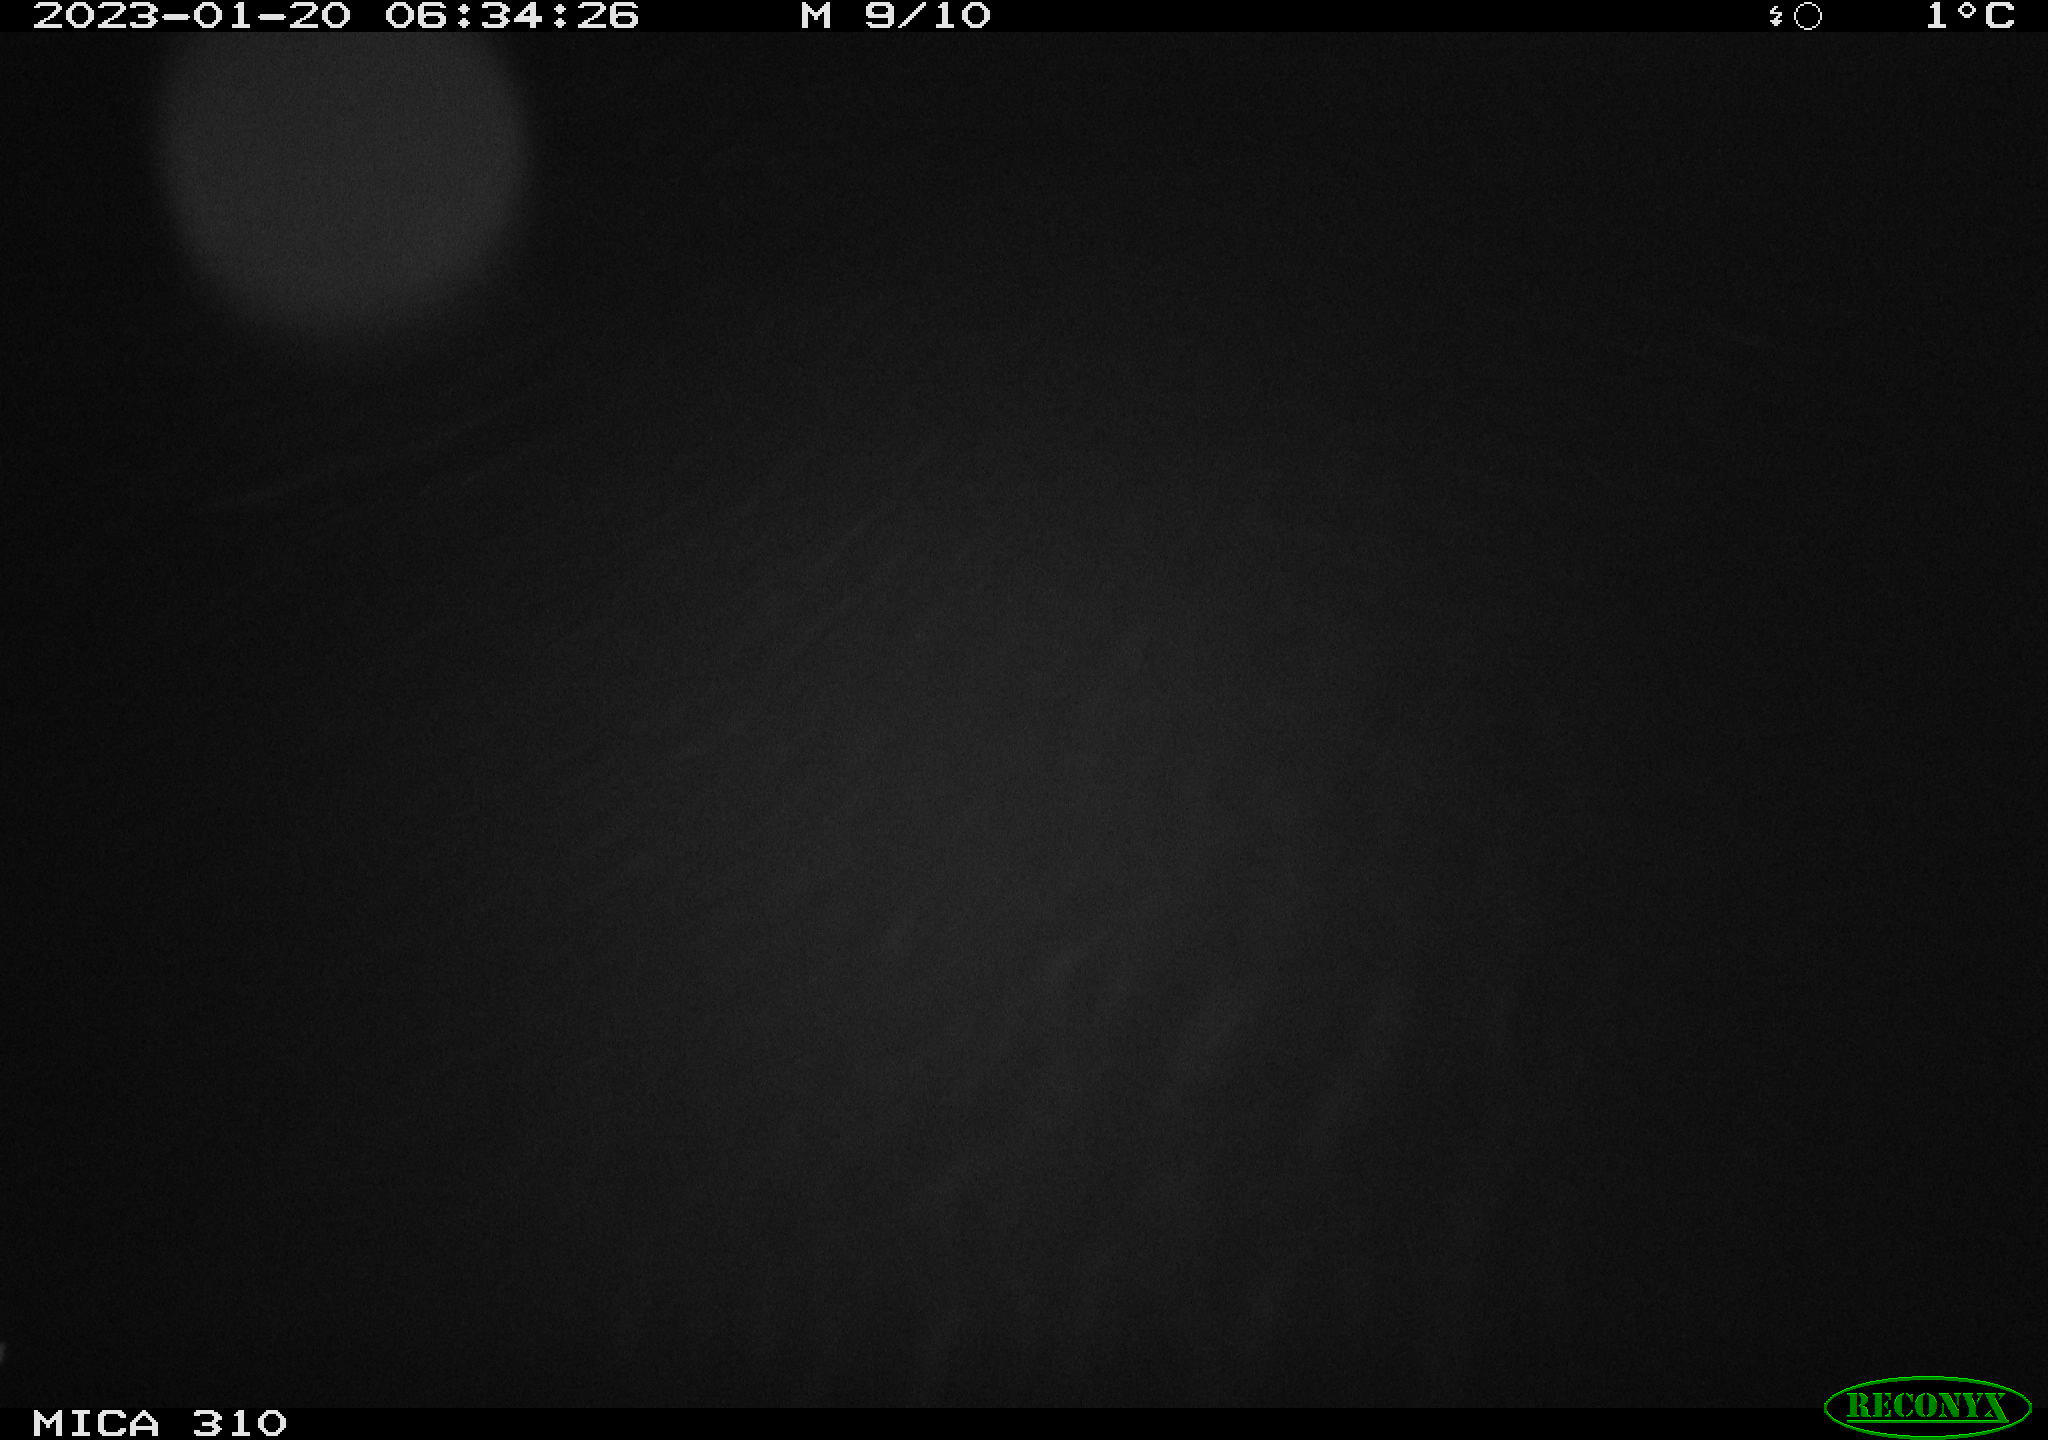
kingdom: Animalia
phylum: Chordata
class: Aves
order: Anseriformes
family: Anatidae
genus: Anas
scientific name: Anas
